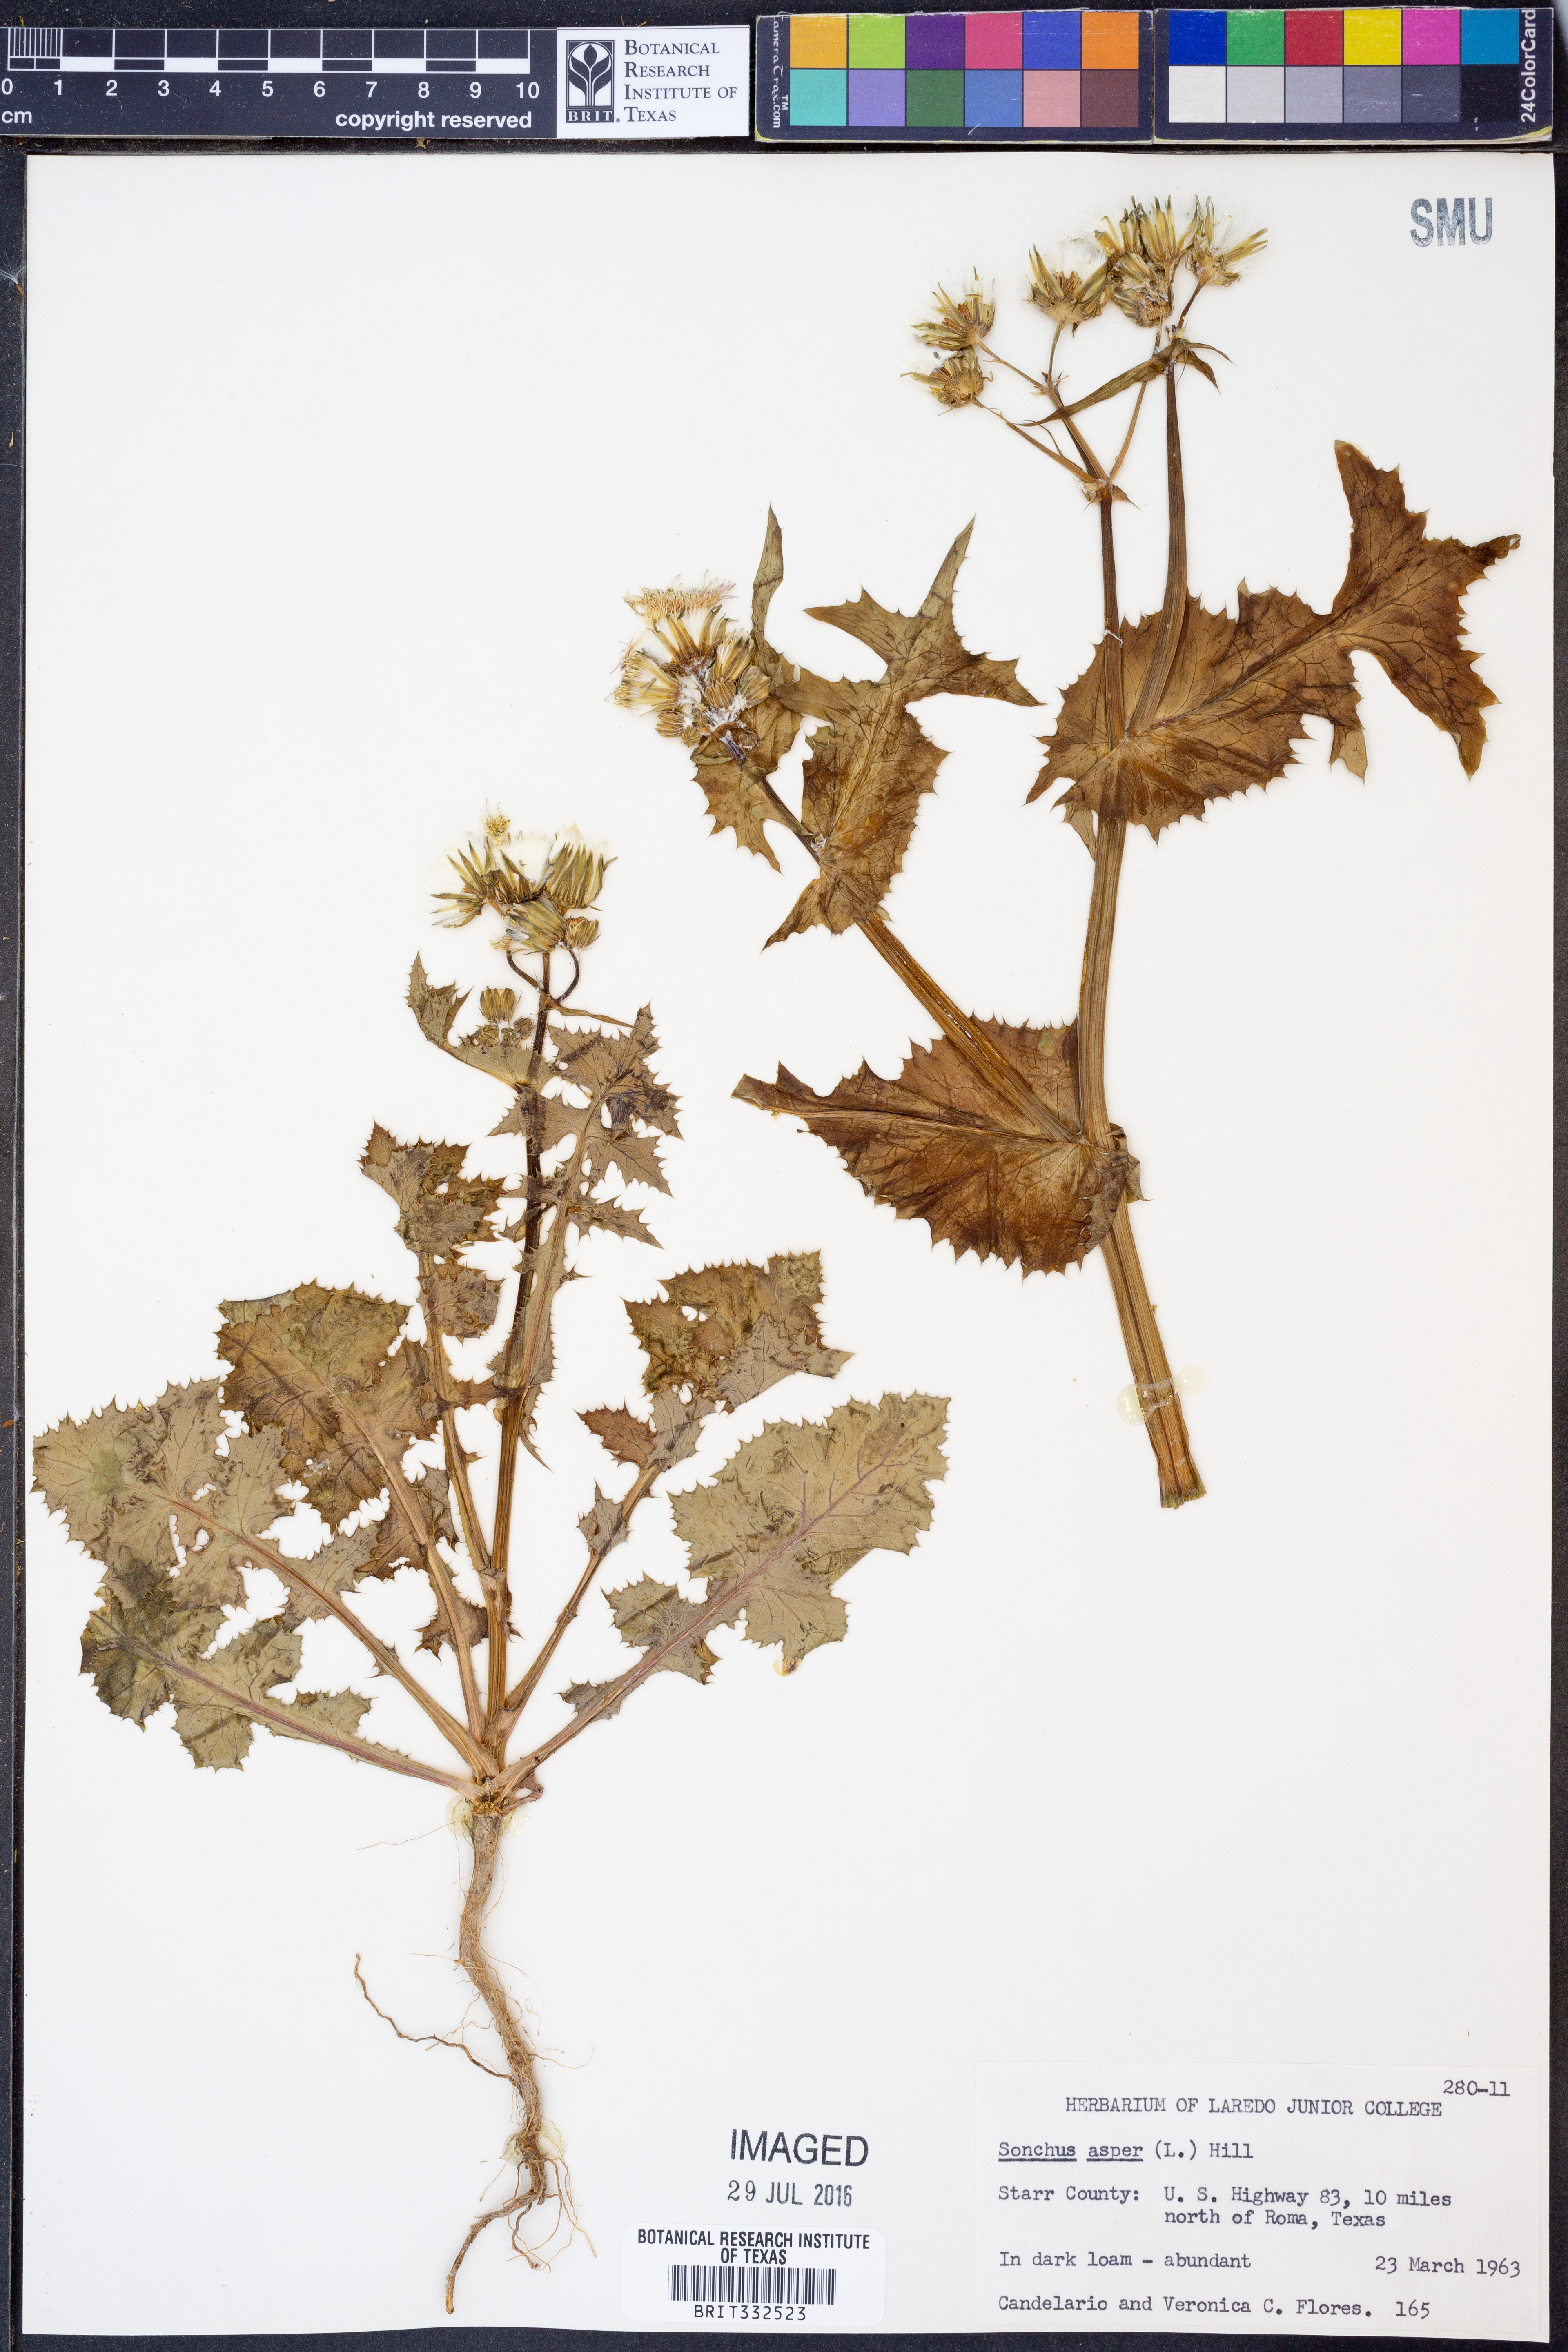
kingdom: Plantae
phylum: Tracheophyta
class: Magnoliopsida
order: Asterales
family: Asteraceae
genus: Sonchus
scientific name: Sonchus asper
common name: Prickly sow-thistle
